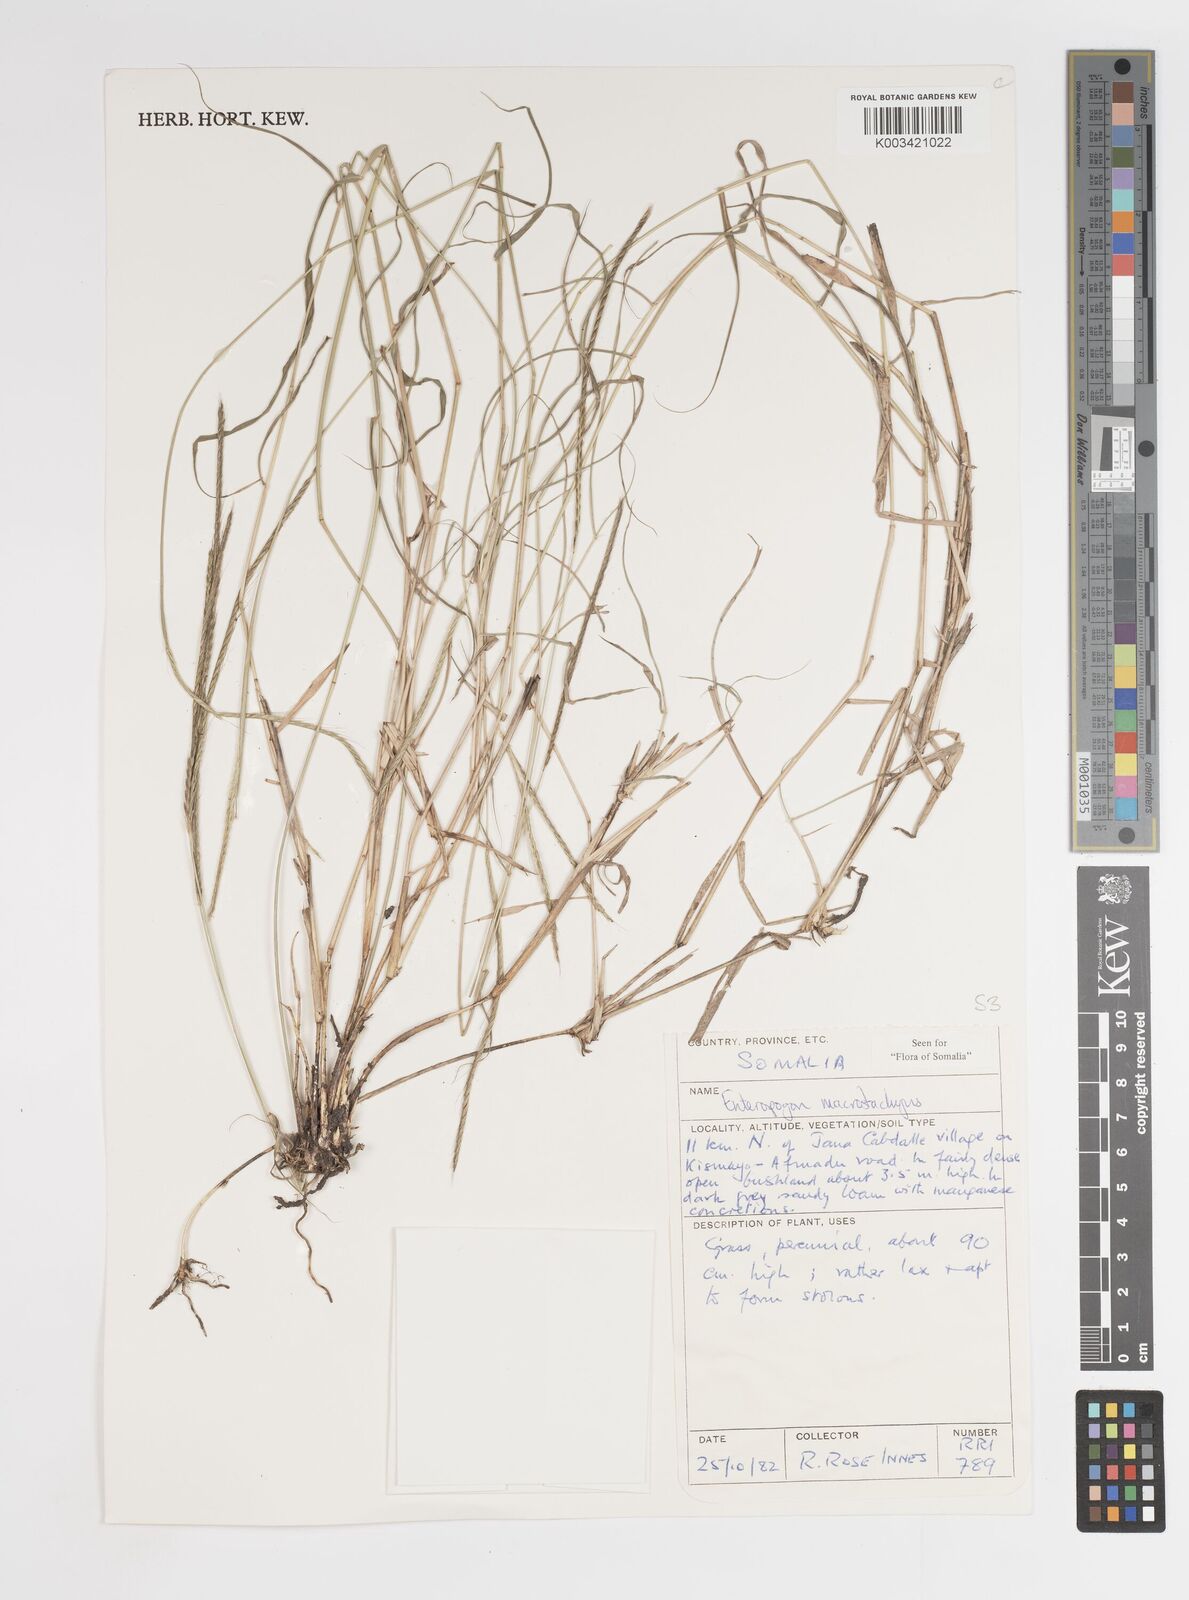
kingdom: Plantae
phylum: Tracheophyta
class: Liliopsida
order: Poales
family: Poaceae
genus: Enteropogon
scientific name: Enteropogon macrostachyus
